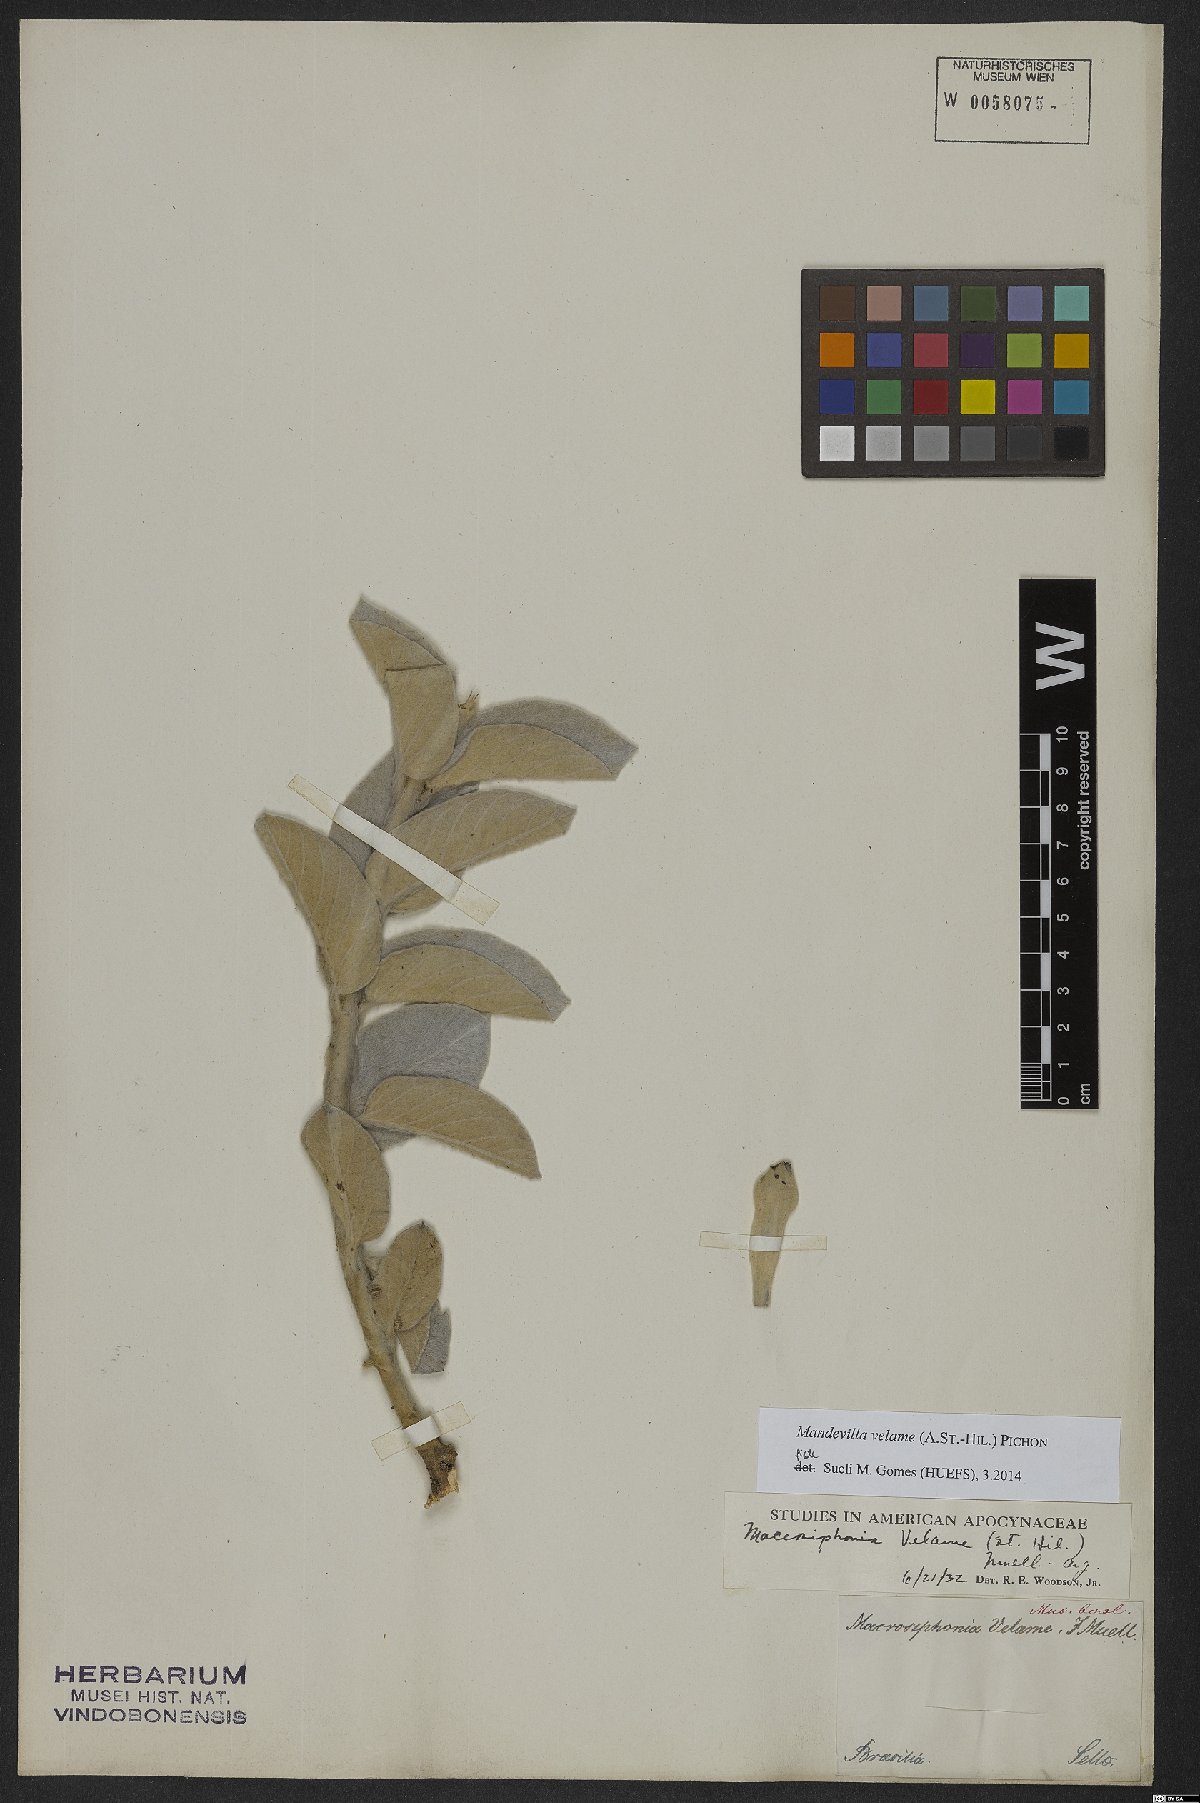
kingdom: Plantae
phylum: Tracheophyta
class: Magnoliopsida
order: Gentianales
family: Apocynaceae
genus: Mandevilla
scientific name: Mandevilla velame
